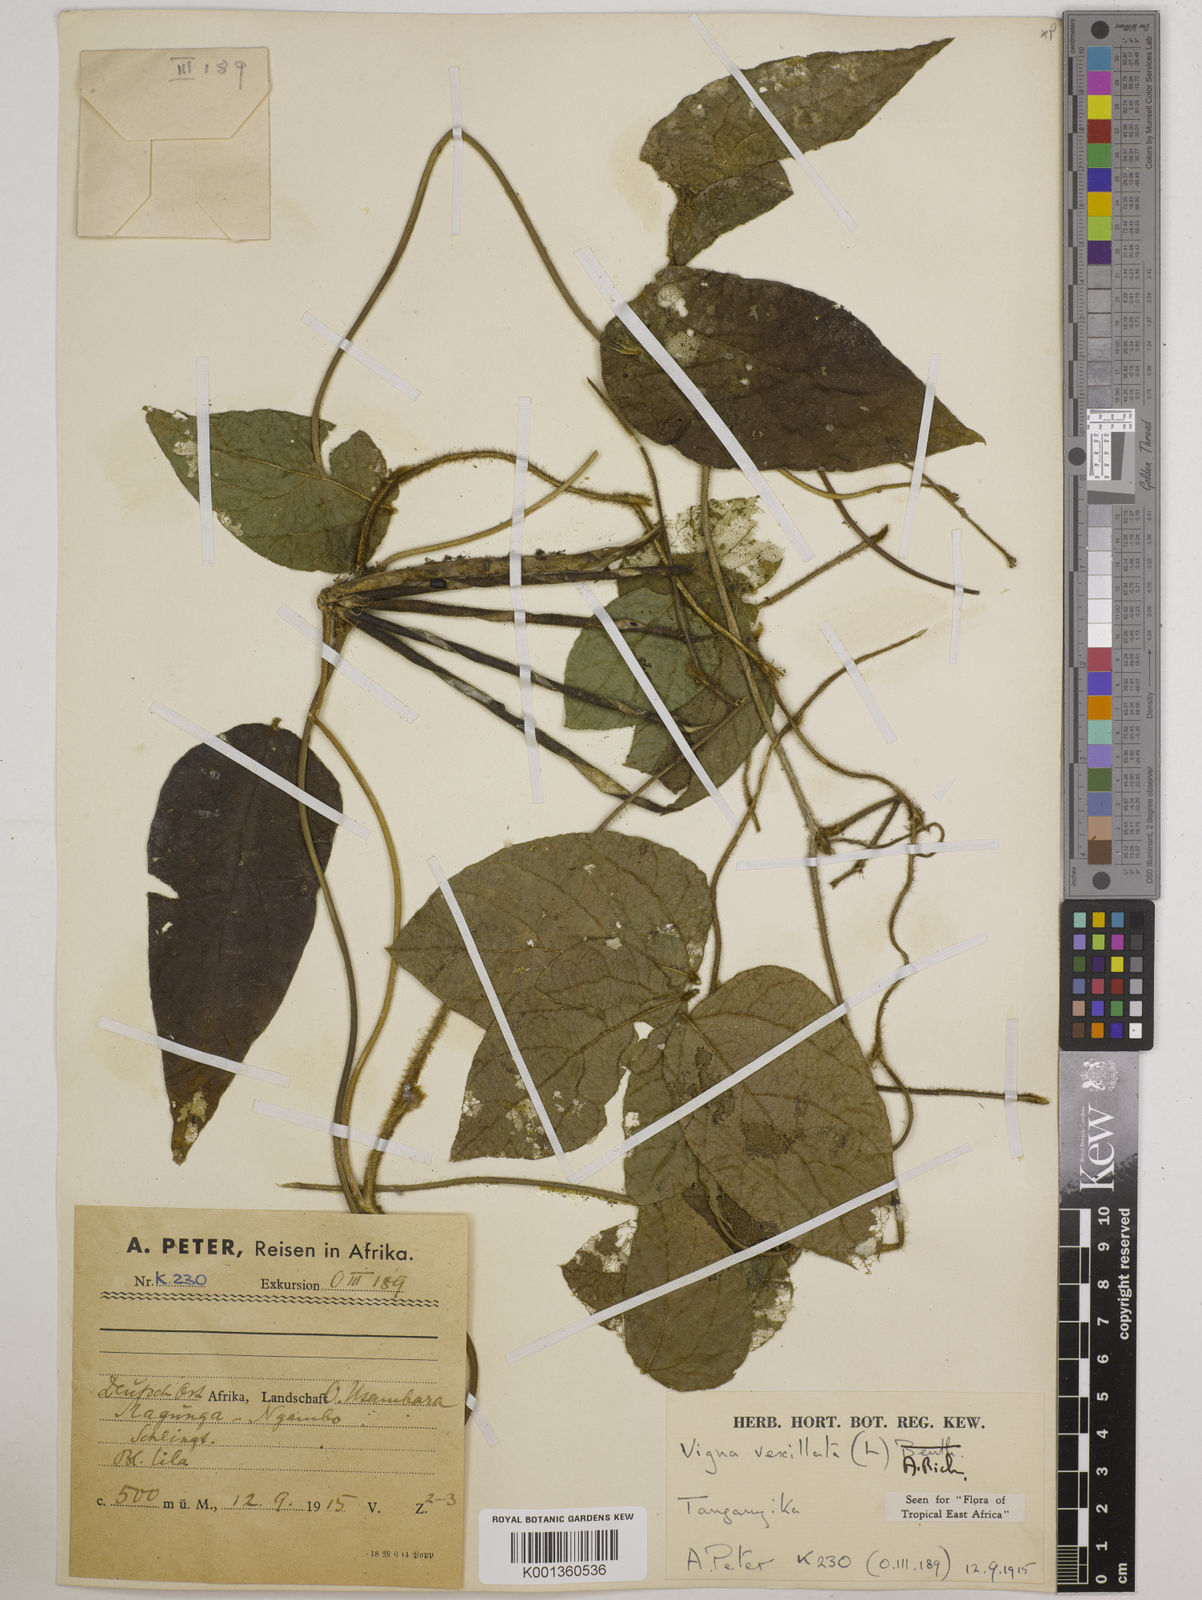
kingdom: Plantae
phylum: Tracheophyta
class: Magnoliopsida
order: Fabales
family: Fabaceae
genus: Vigna
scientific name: Vigna vexillata
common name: Zombi pea
